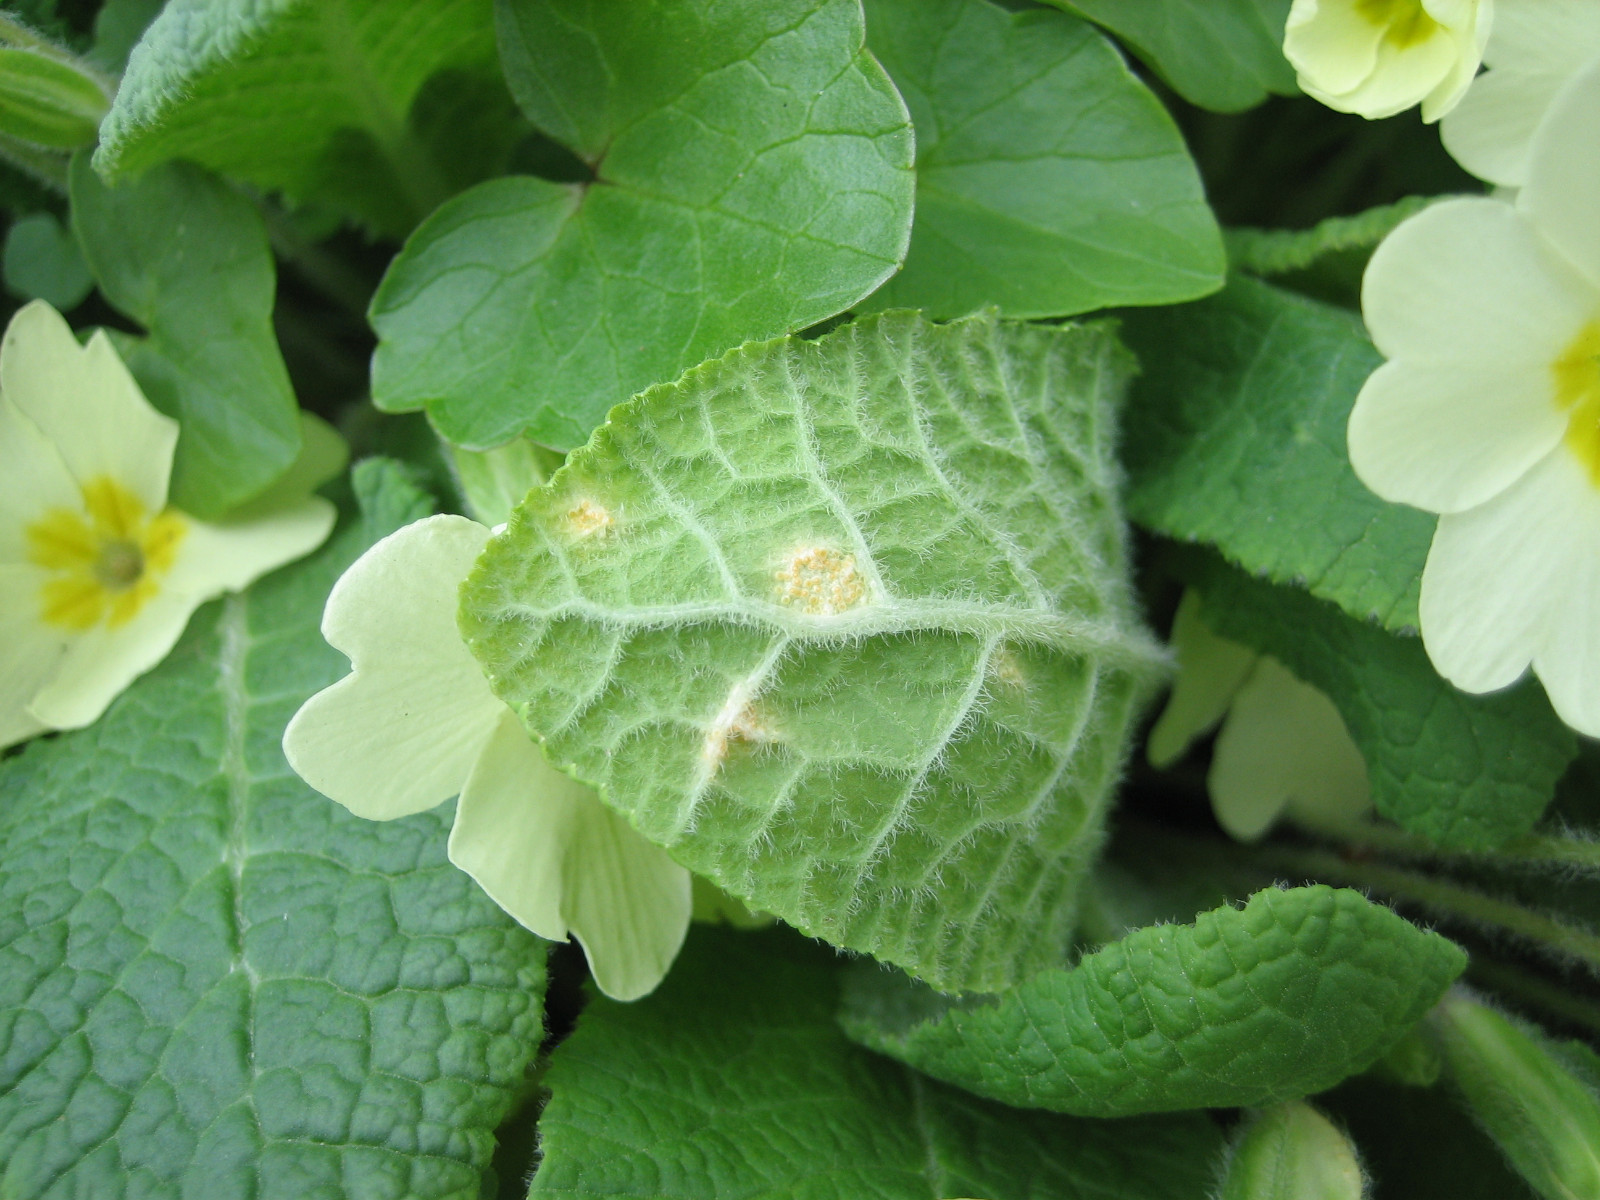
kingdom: Fungi
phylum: Basidiomycota
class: Pucciniomycetes
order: Pucciniales
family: Pucciniaceae
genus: Puccinia
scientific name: Puccinia primulae
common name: Primrose rust
